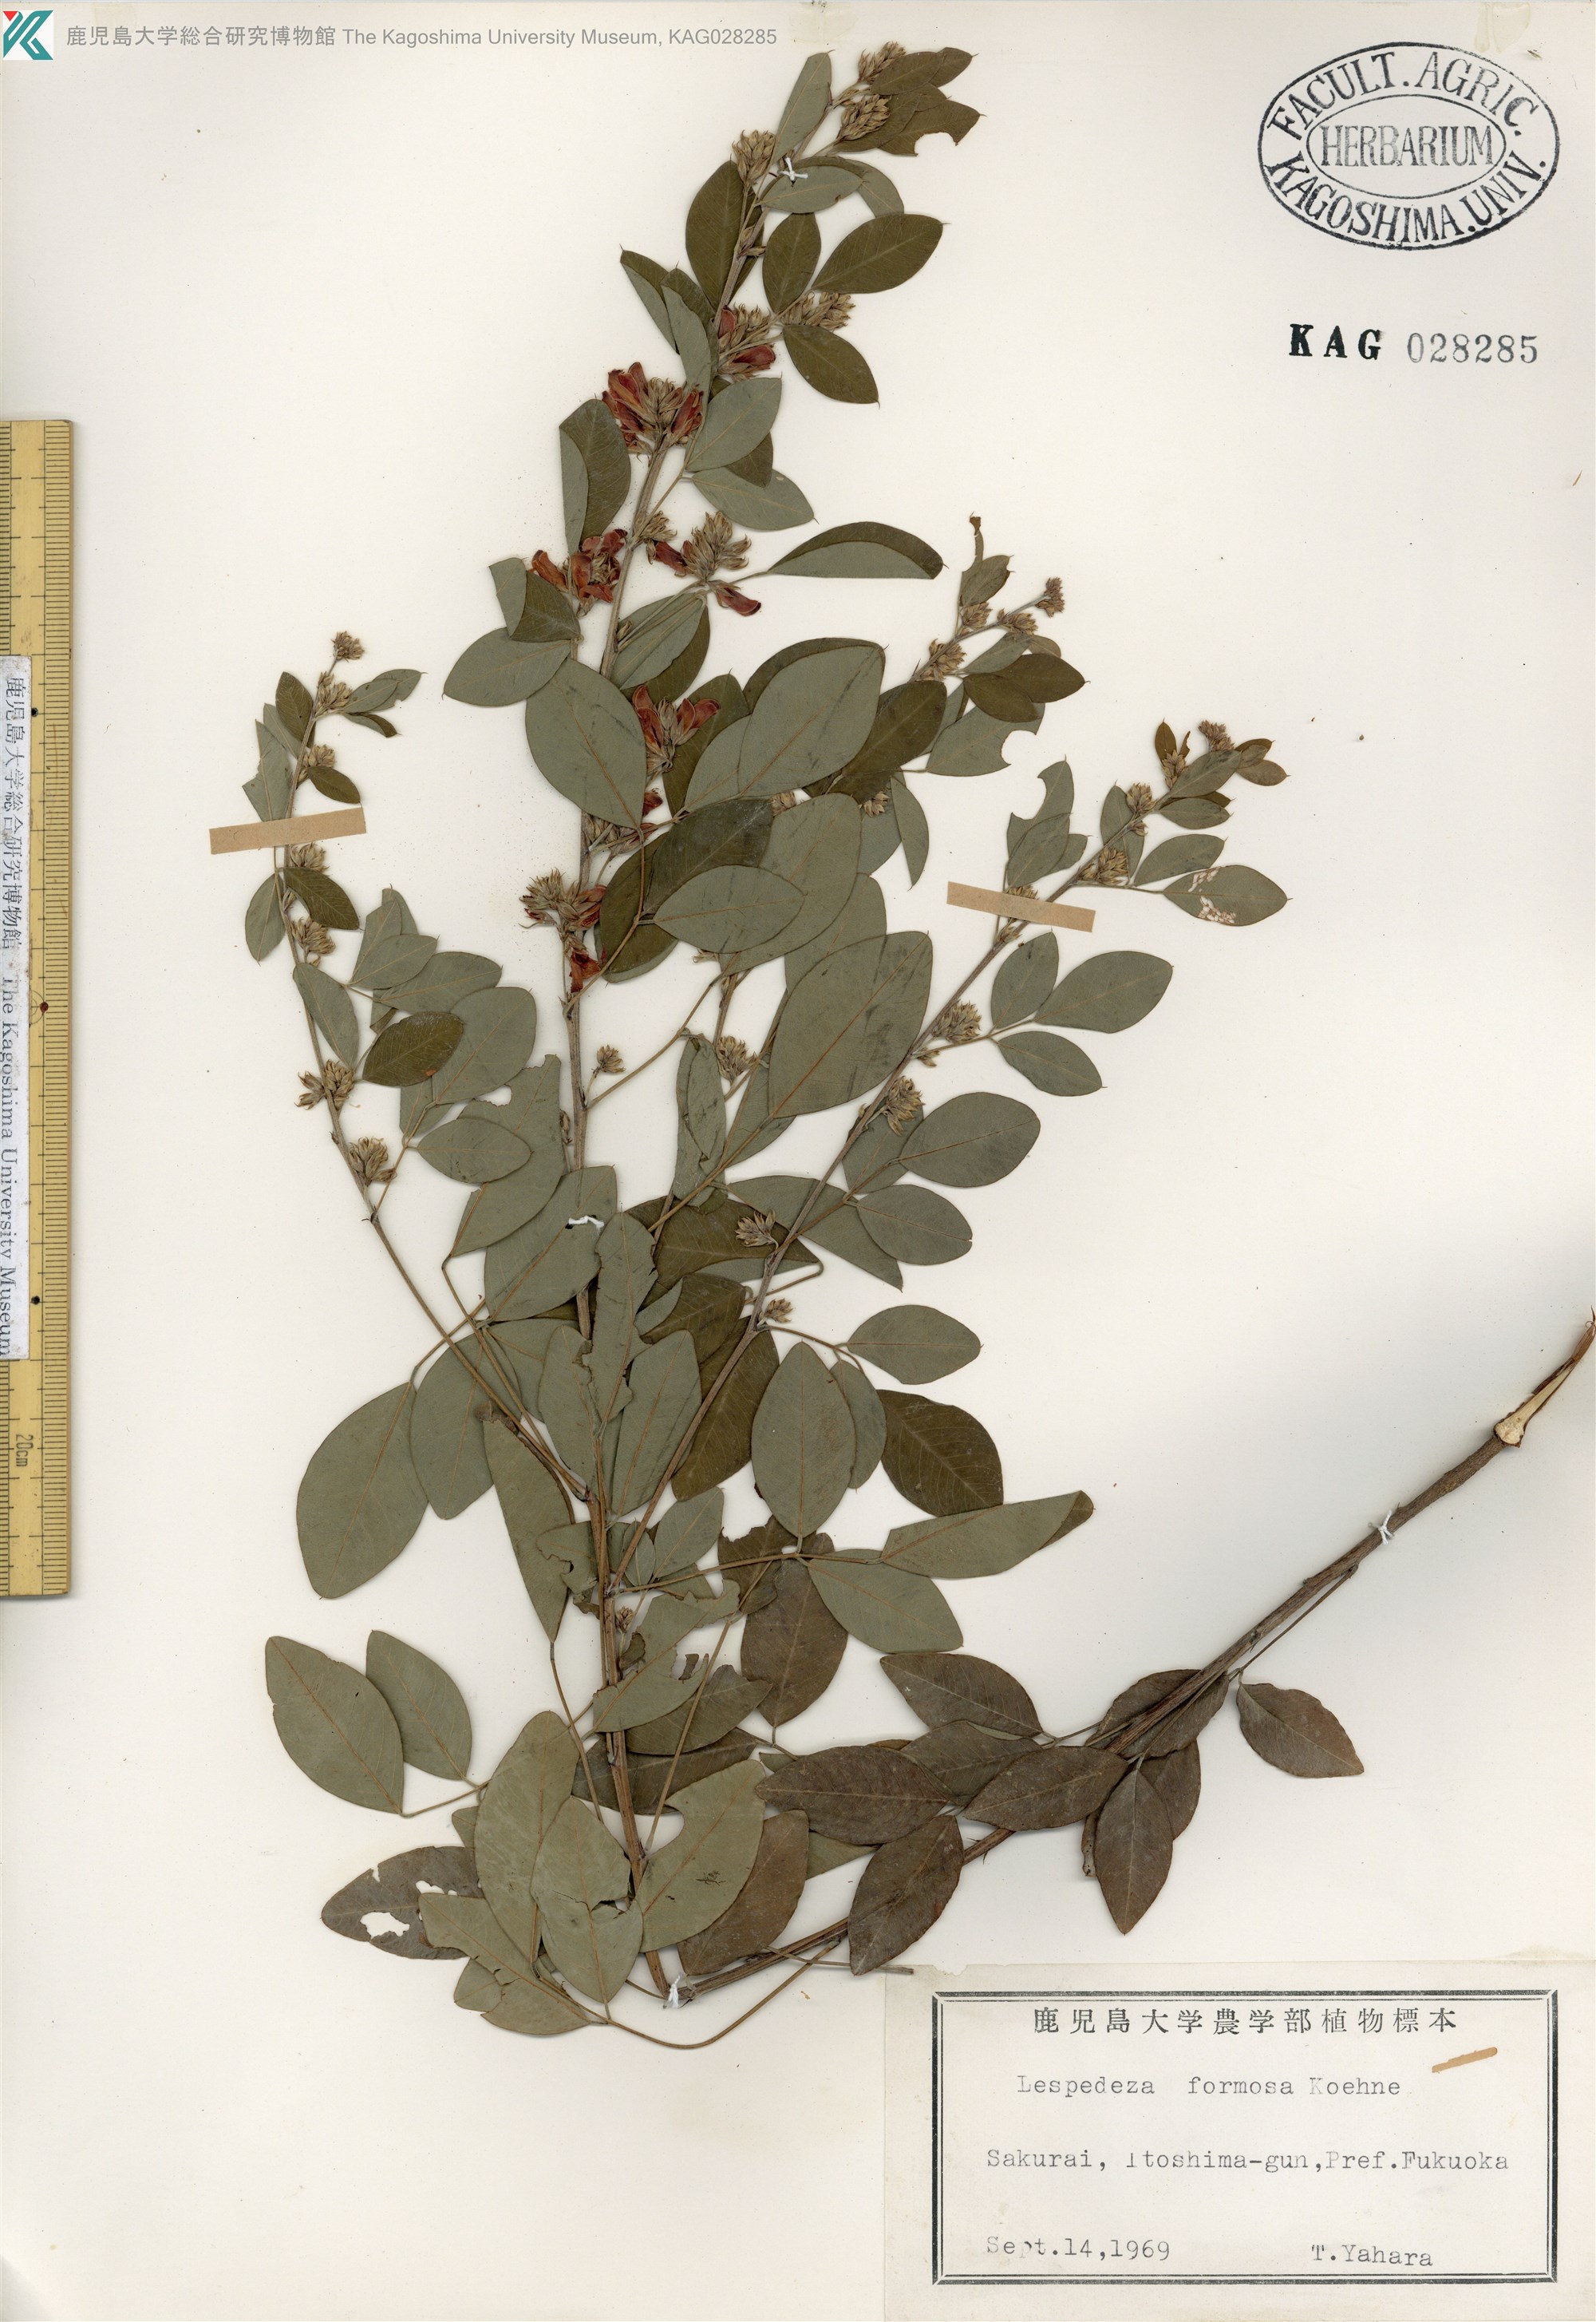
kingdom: Plantae
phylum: Tracheophyta
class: Magnoliopsida
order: Fabales
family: Fabaceae
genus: Lespedeza
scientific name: Lespedeza thunbergii
